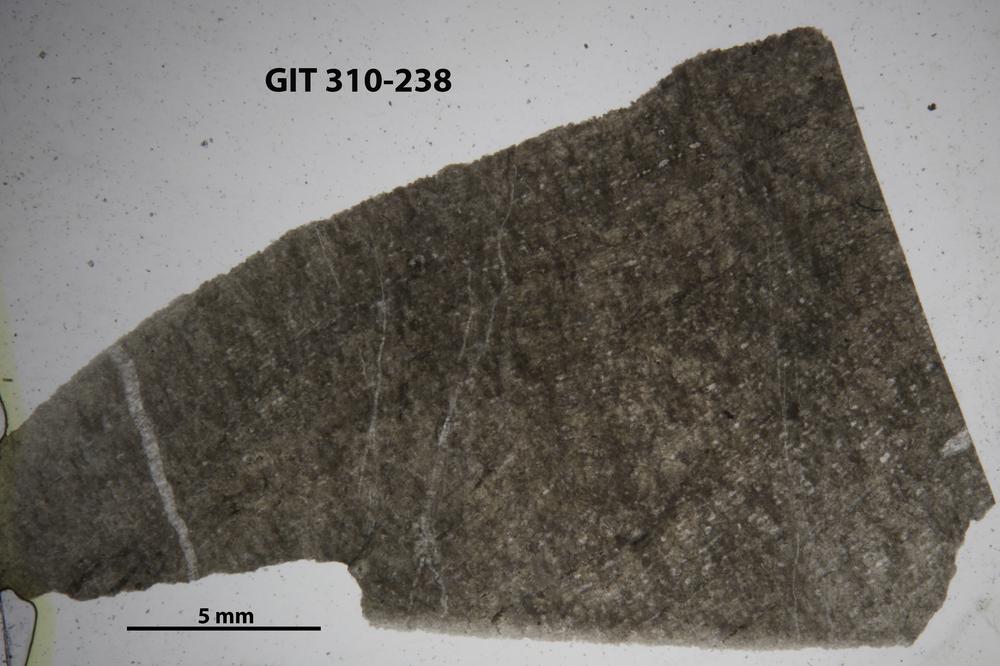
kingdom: Animalia
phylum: Porifera
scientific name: Porifera
